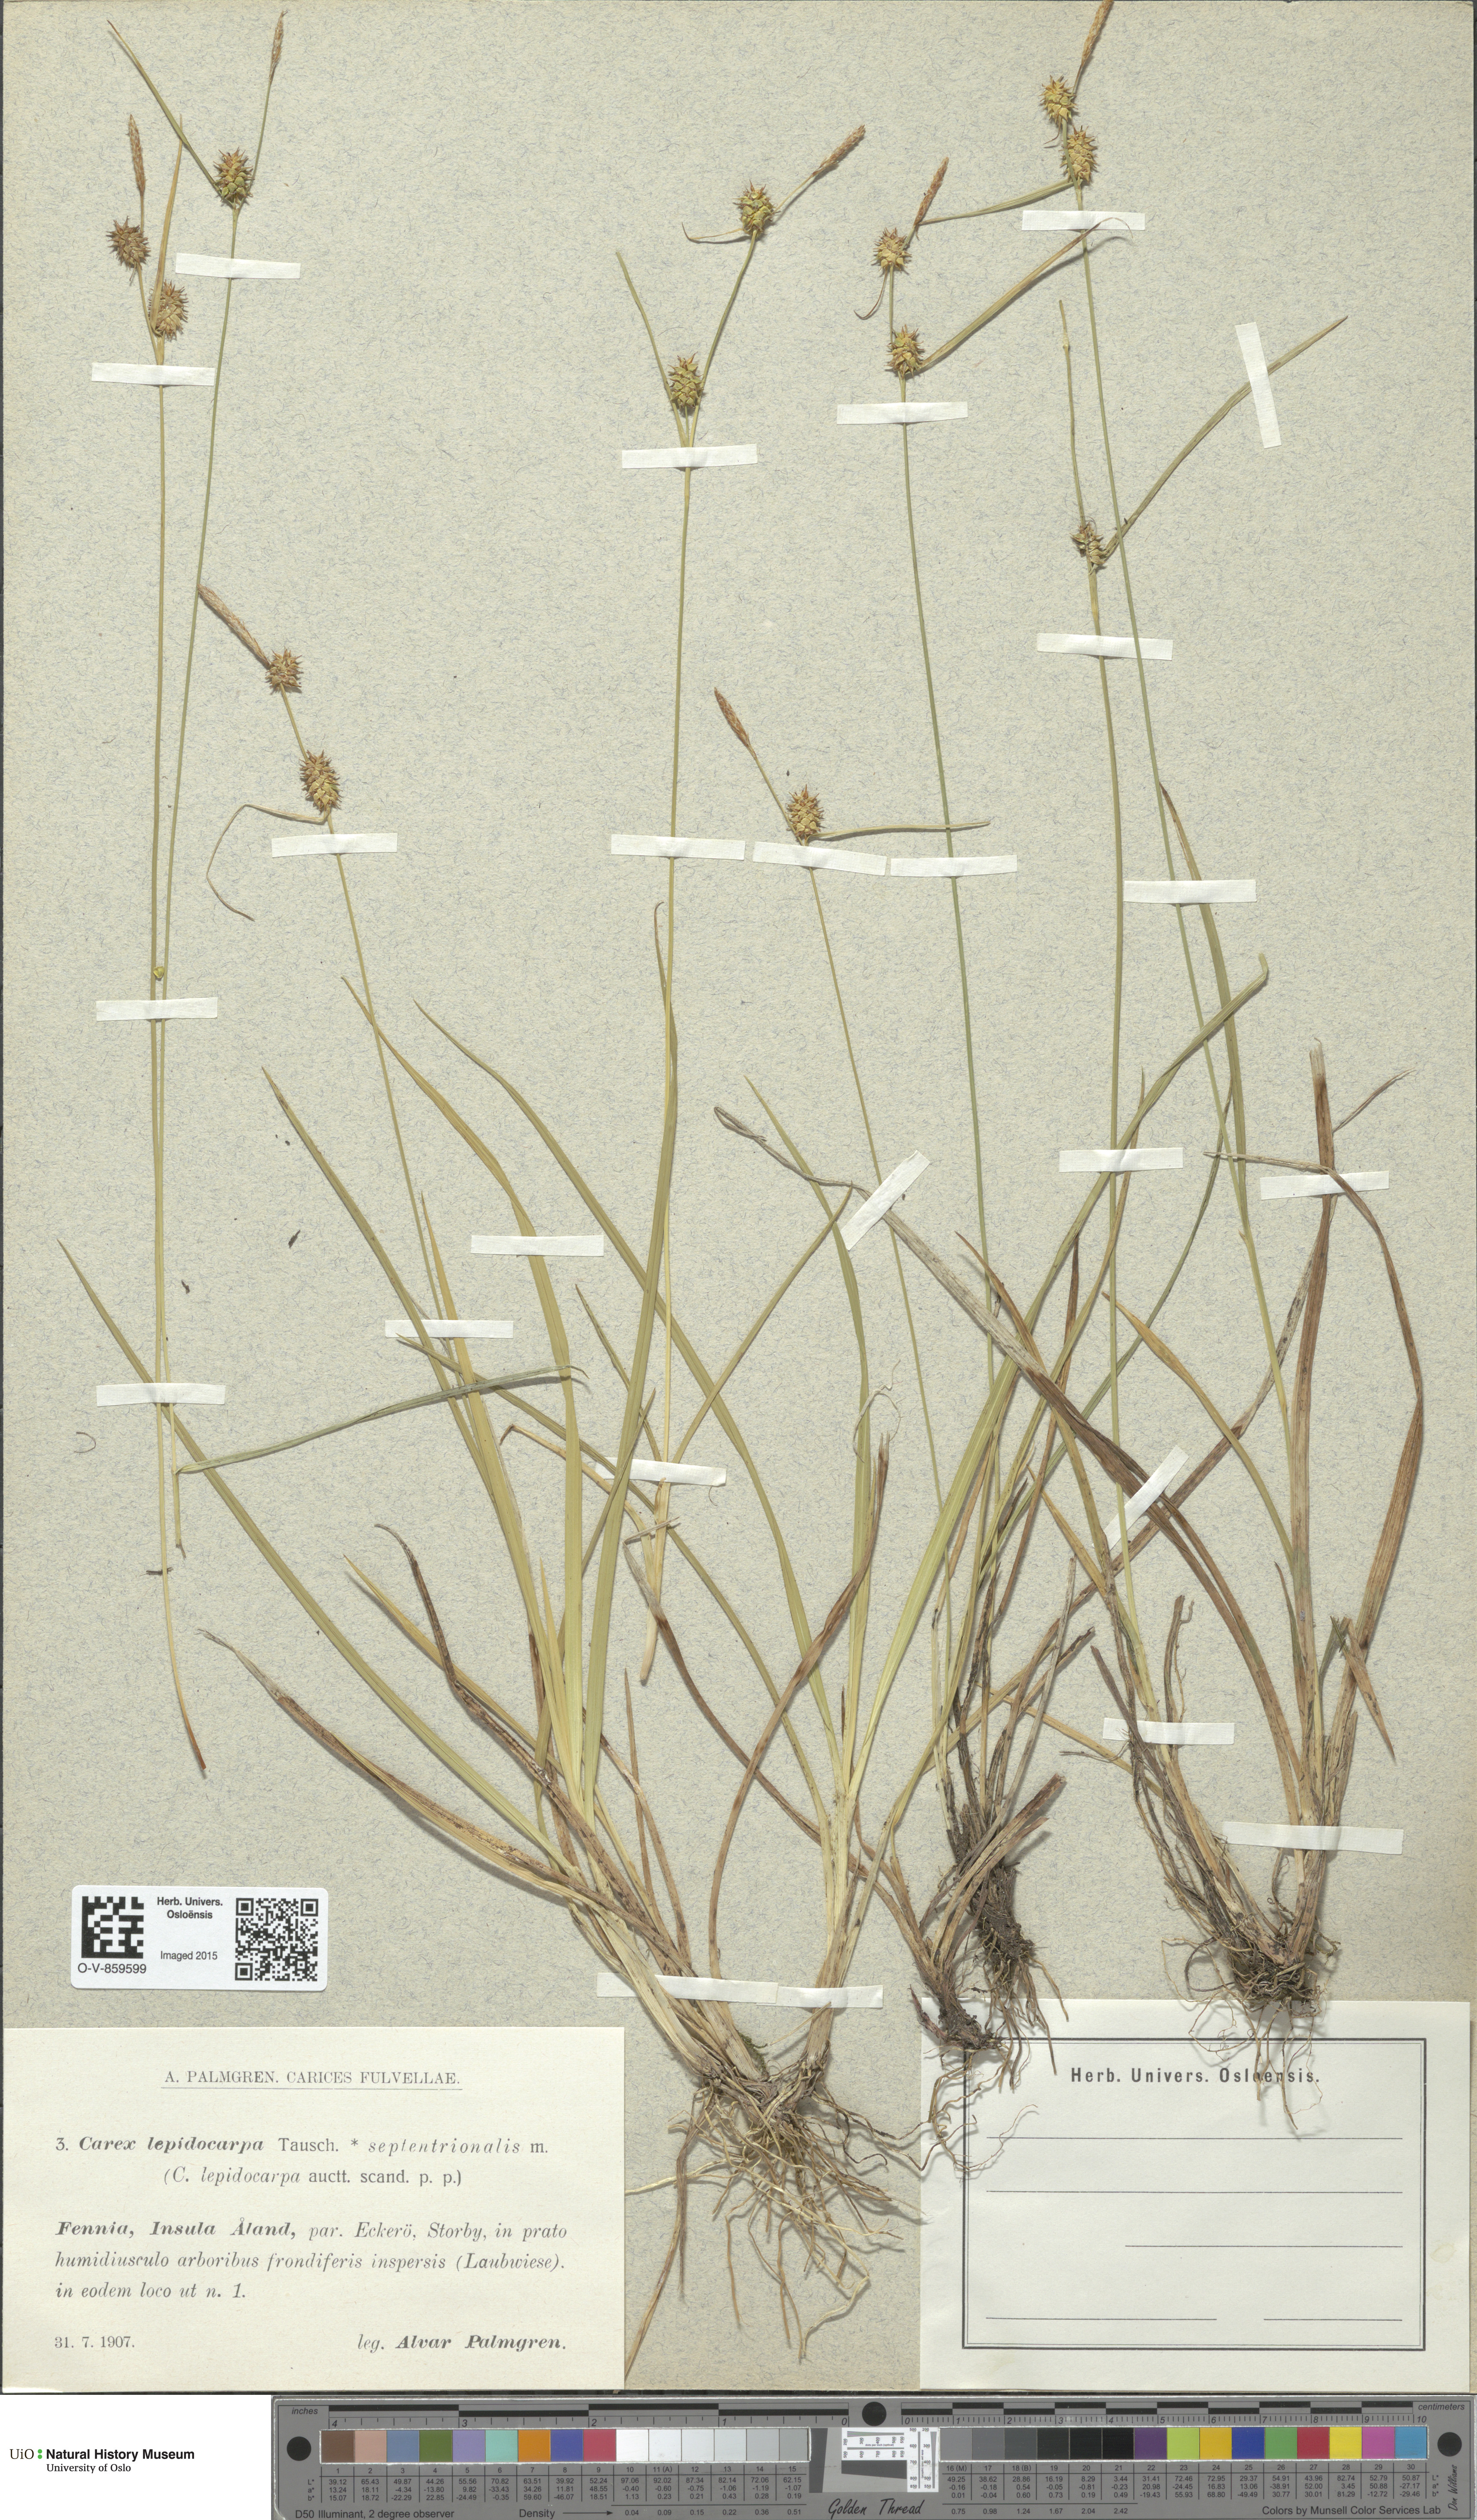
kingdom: Plantae
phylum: Tracheophyta
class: Liliopsida
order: Poales
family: Cyperaceae
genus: Carex
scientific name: Carex lepidocarpa
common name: Long-stalked yellow-sedge
